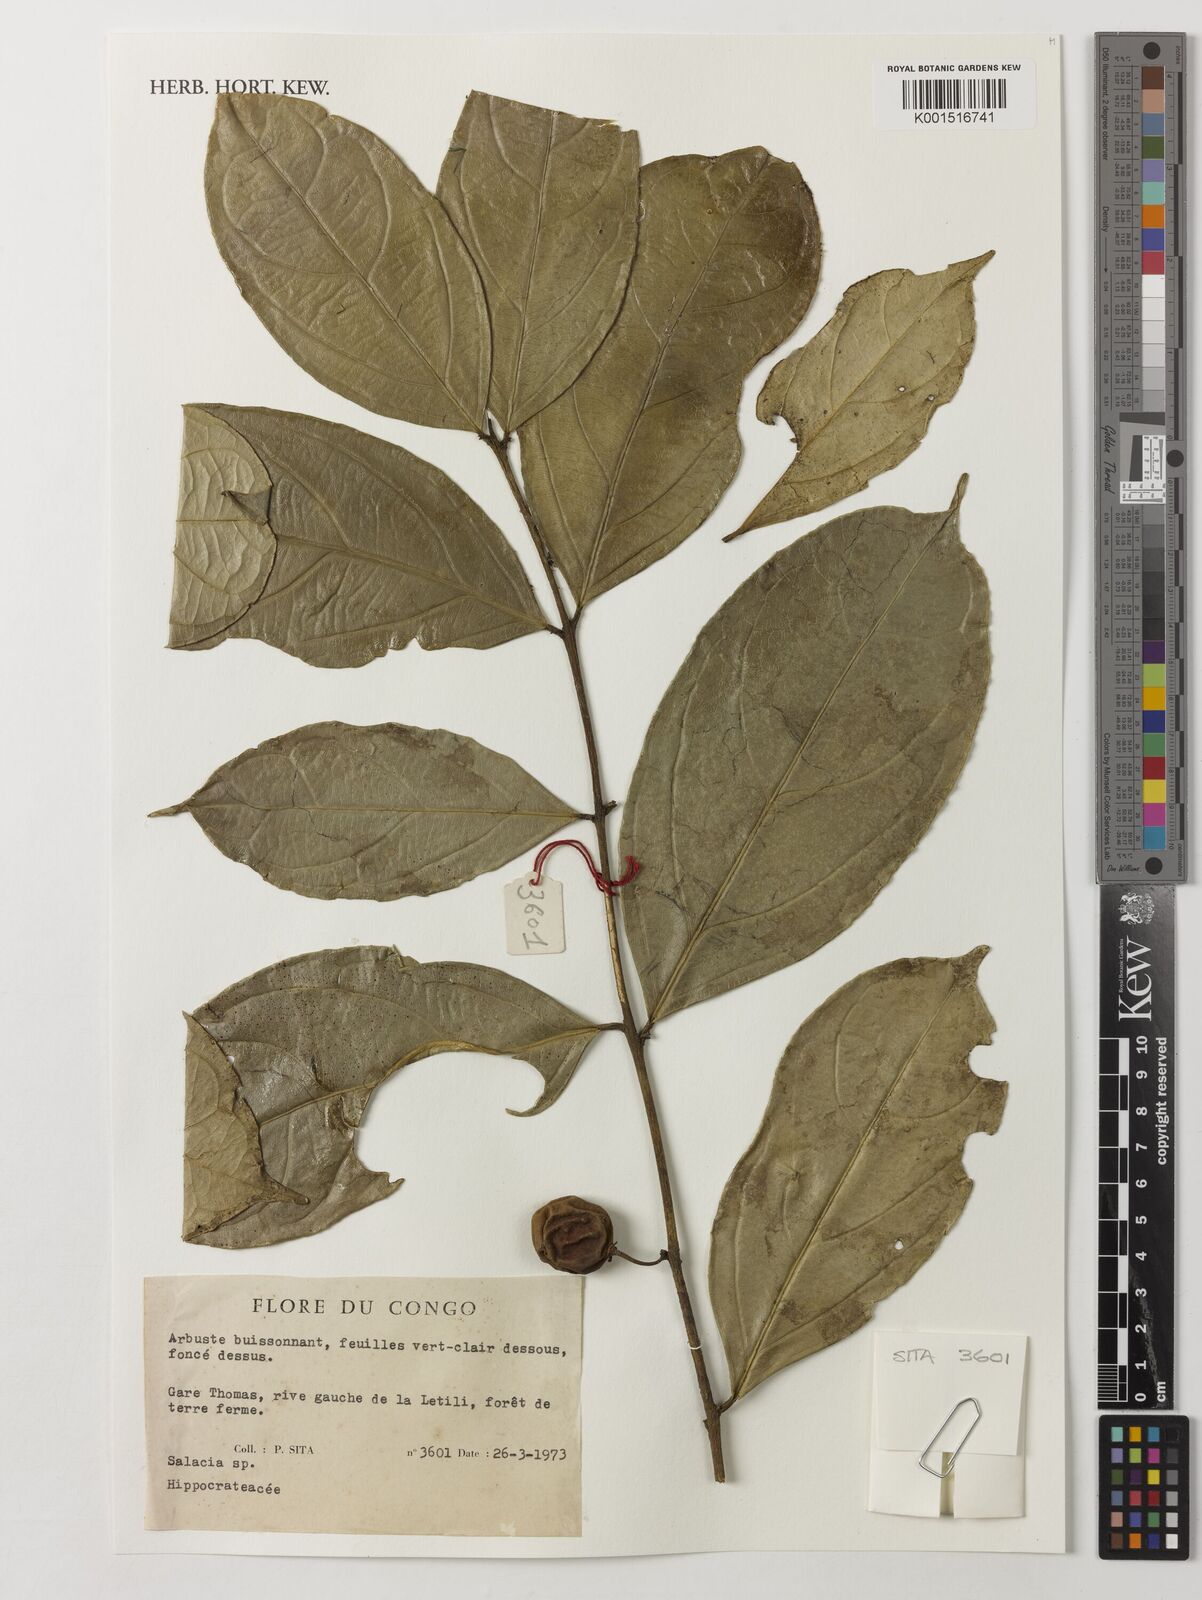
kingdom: Plantae
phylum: Tracheophyta
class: Magnoliopsida
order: Celastrales
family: Celastraceae
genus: Salacia
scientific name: Salacia
